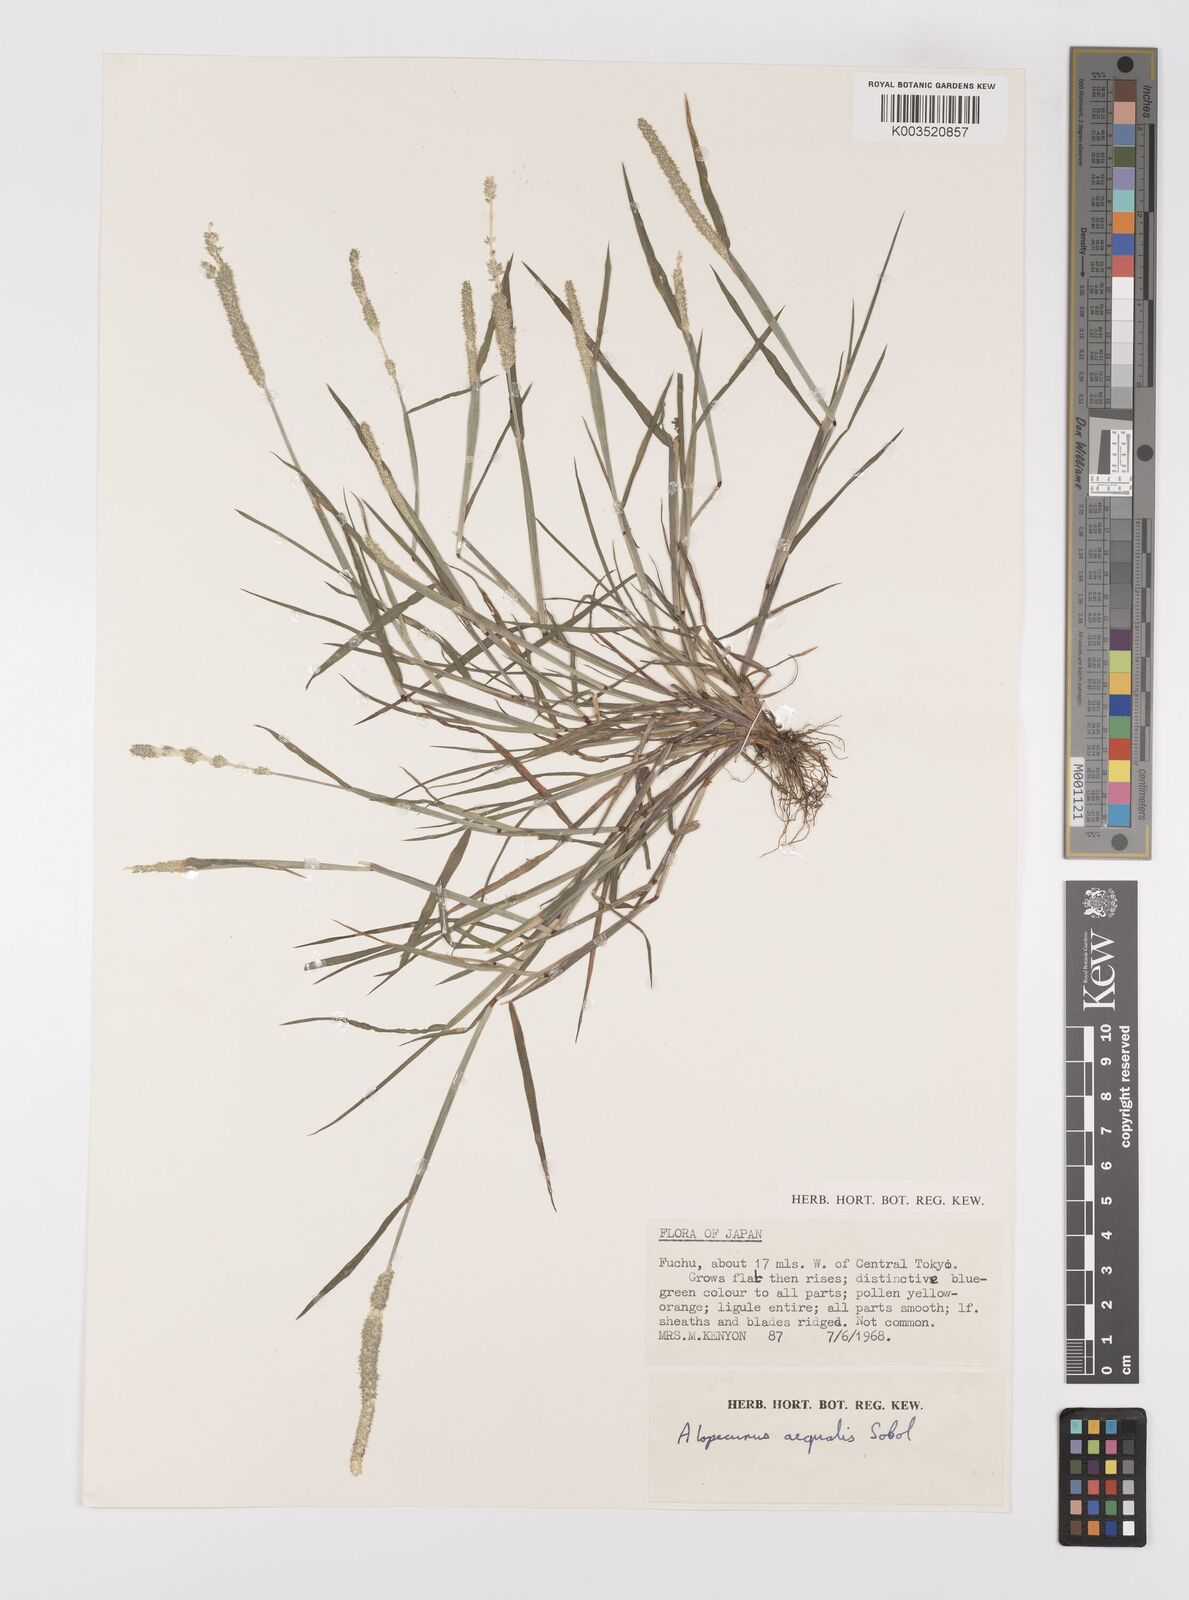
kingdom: Plantae
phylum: Tracheophyta
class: Liliopsida
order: Poales
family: Poaceae
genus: Alopecurus
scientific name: Alopecurus aequalis
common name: Orange foxtail
